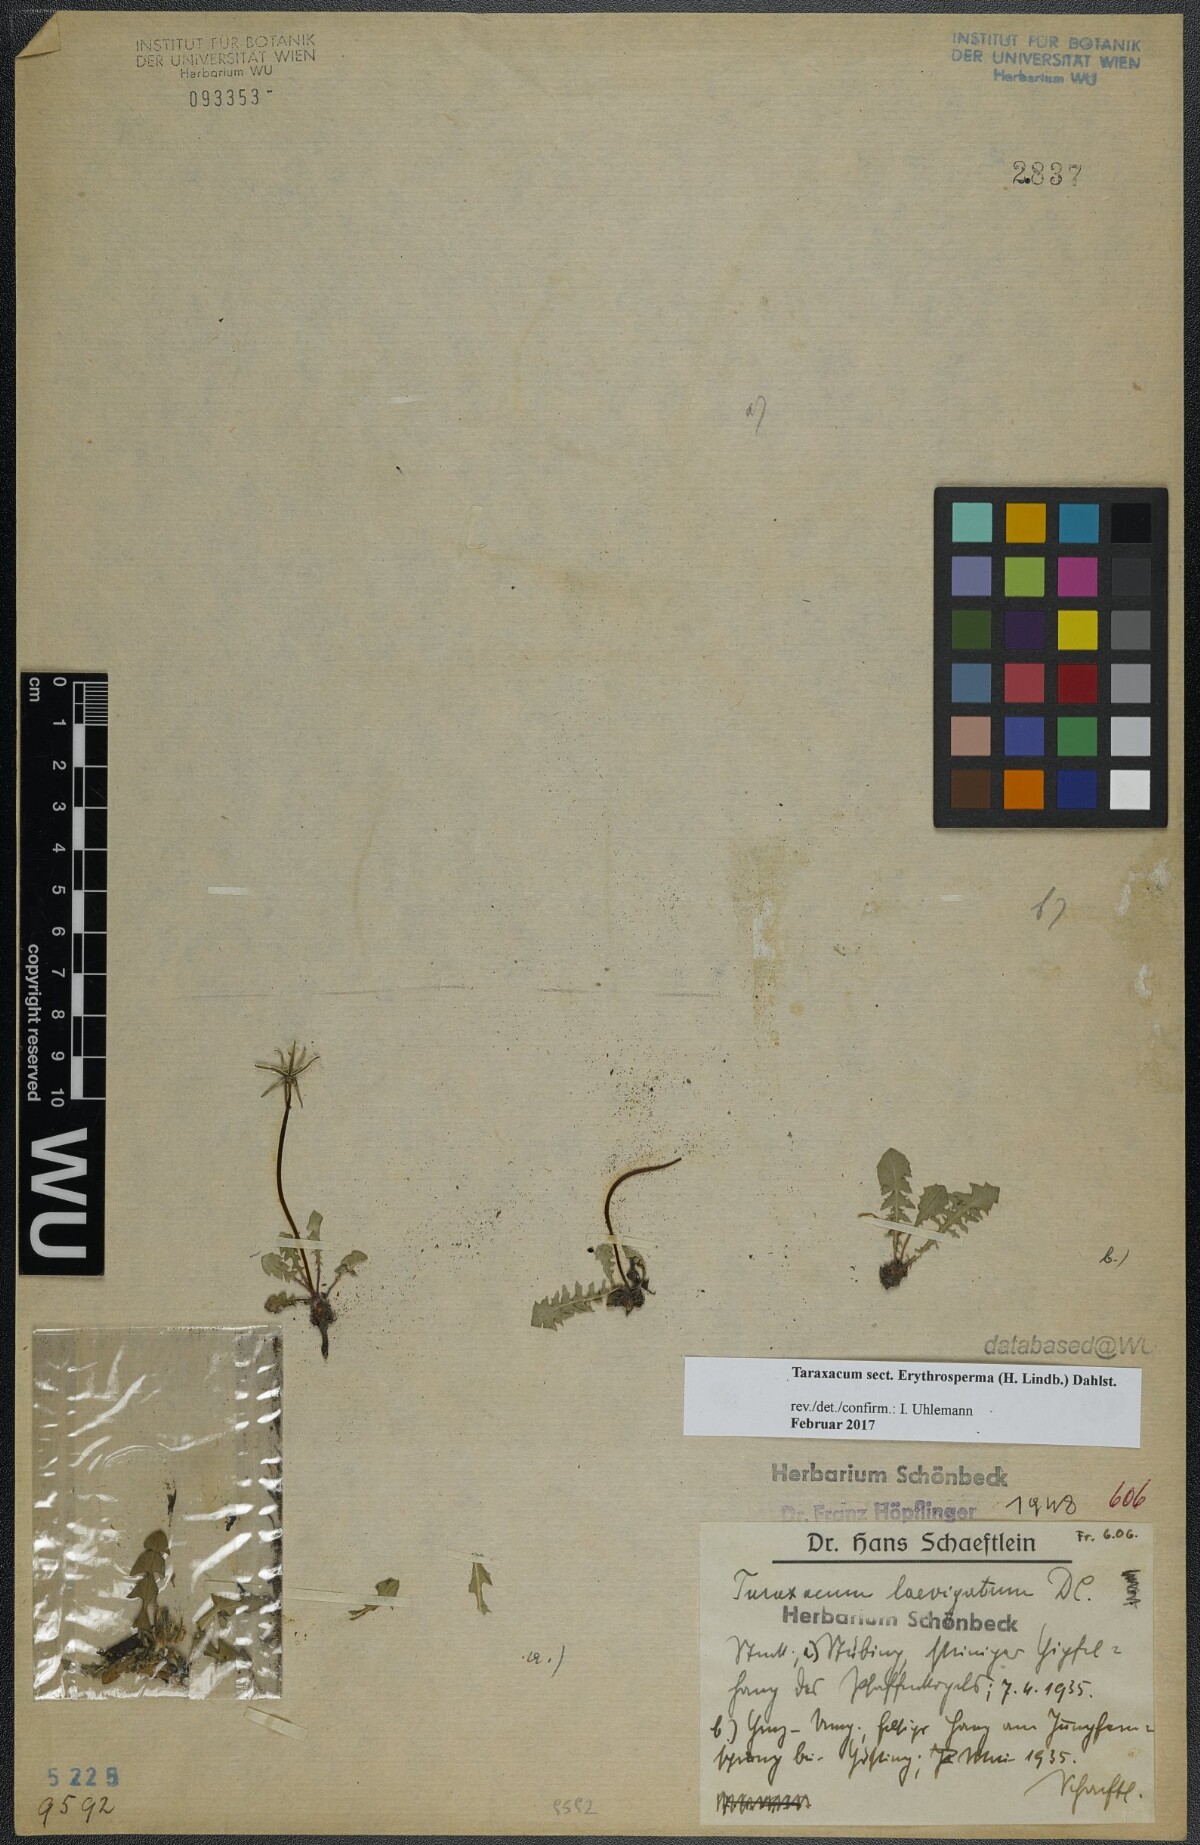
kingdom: Plantae
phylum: Tracheophyta
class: Magnoliopsida
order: Asterales
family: Asteraceae
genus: Taraxacum
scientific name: Taraxacum
